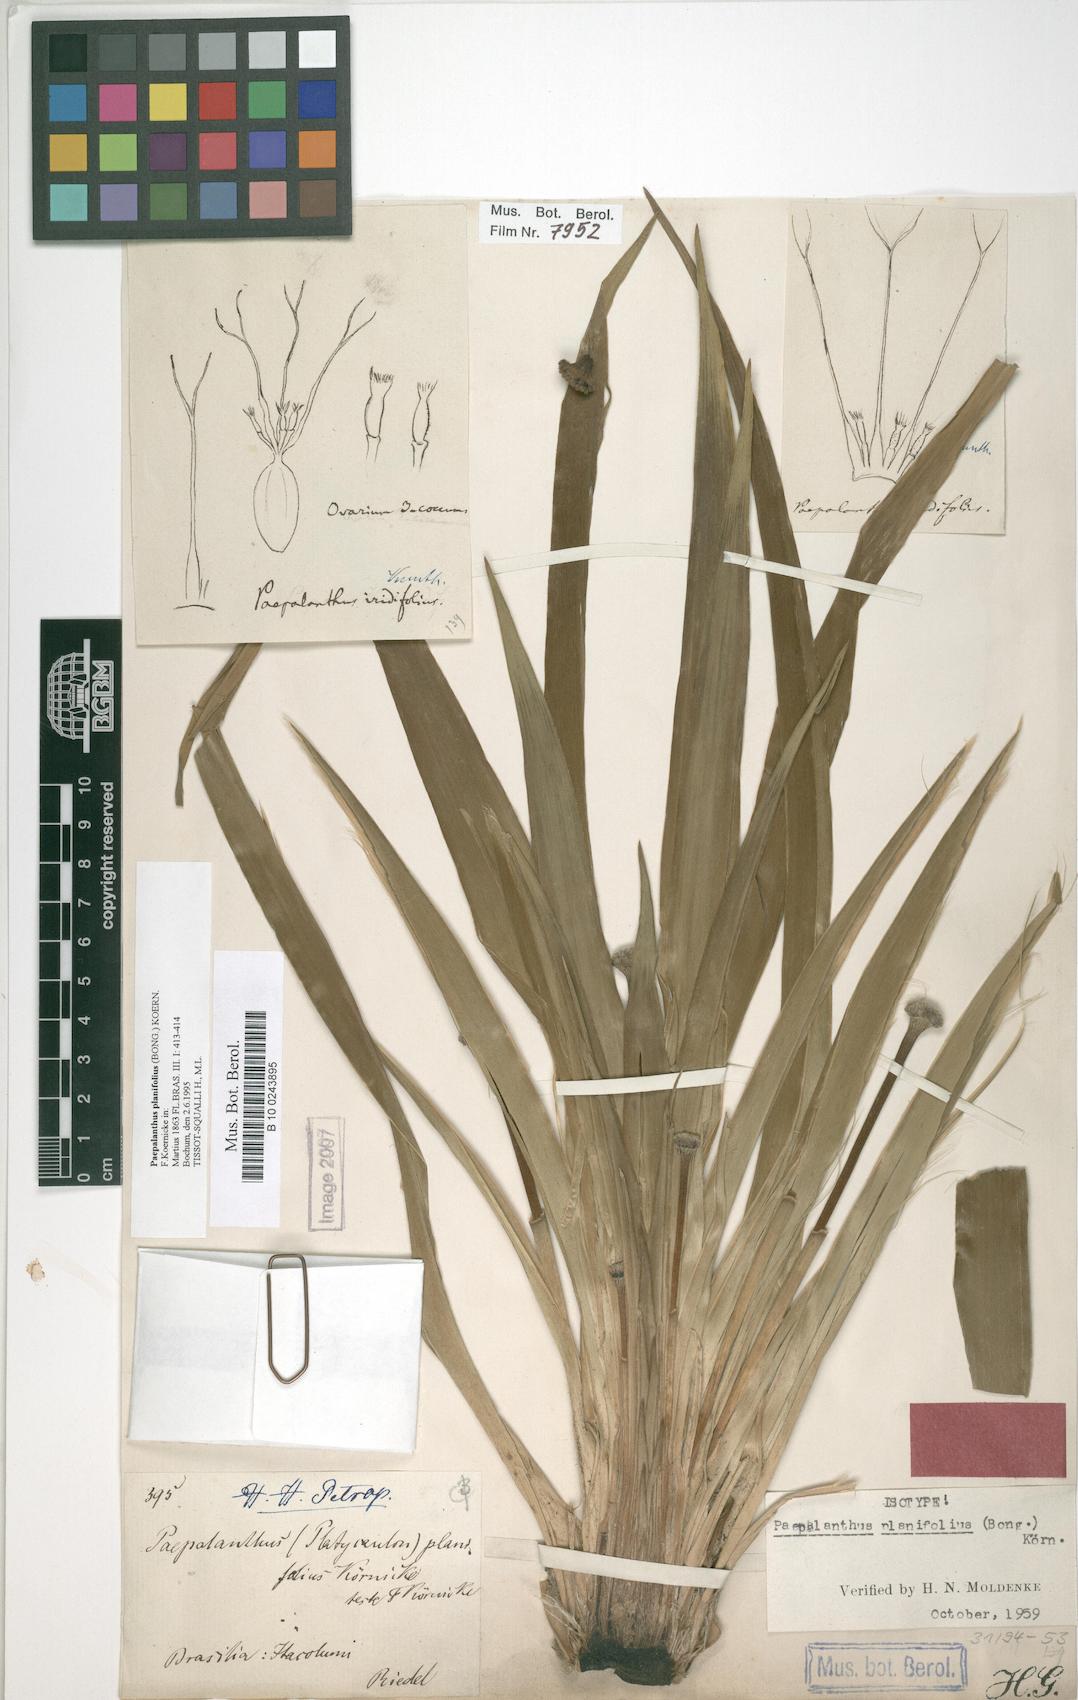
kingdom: Plantae
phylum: Tracheophyta
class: Liliopsida
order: Poales
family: Eriocaulaceae
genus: Paepalanthus
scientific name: Paepalanthus planifolius
